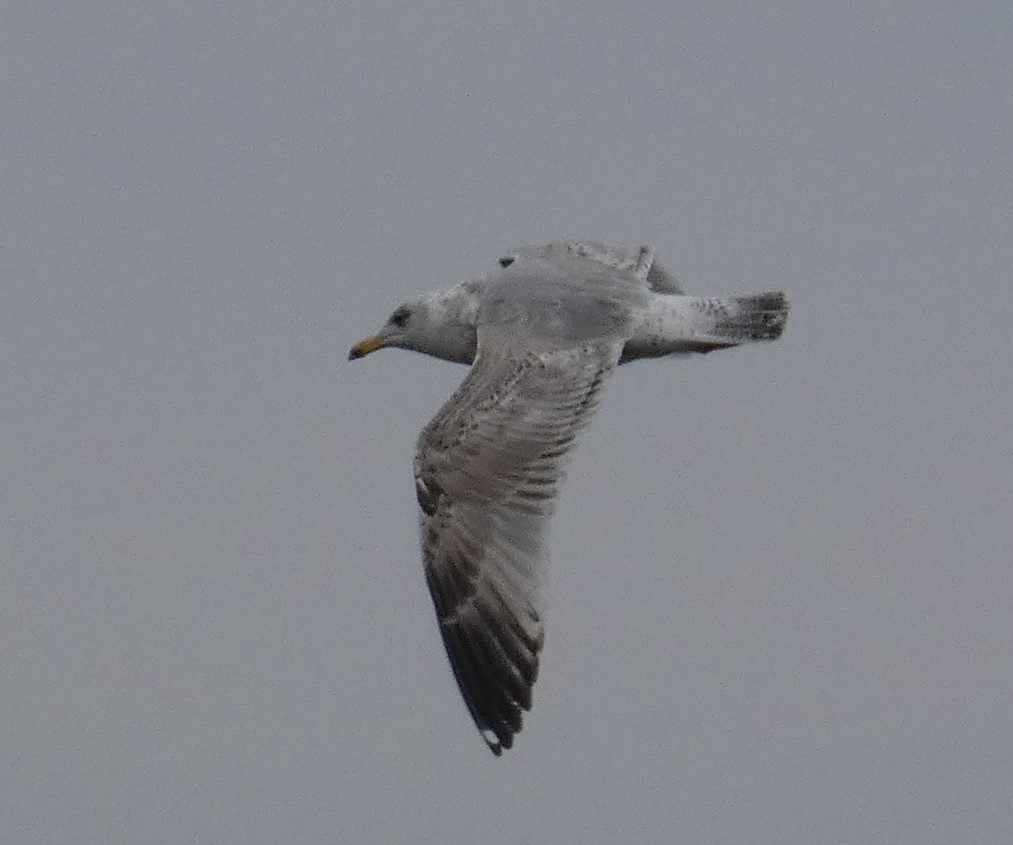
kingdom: Animalia
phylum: Chordata
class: Aves
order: Charadriiformes
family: Laridae
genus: Larus
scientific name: Larus argentatus
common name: Sølvmåge
